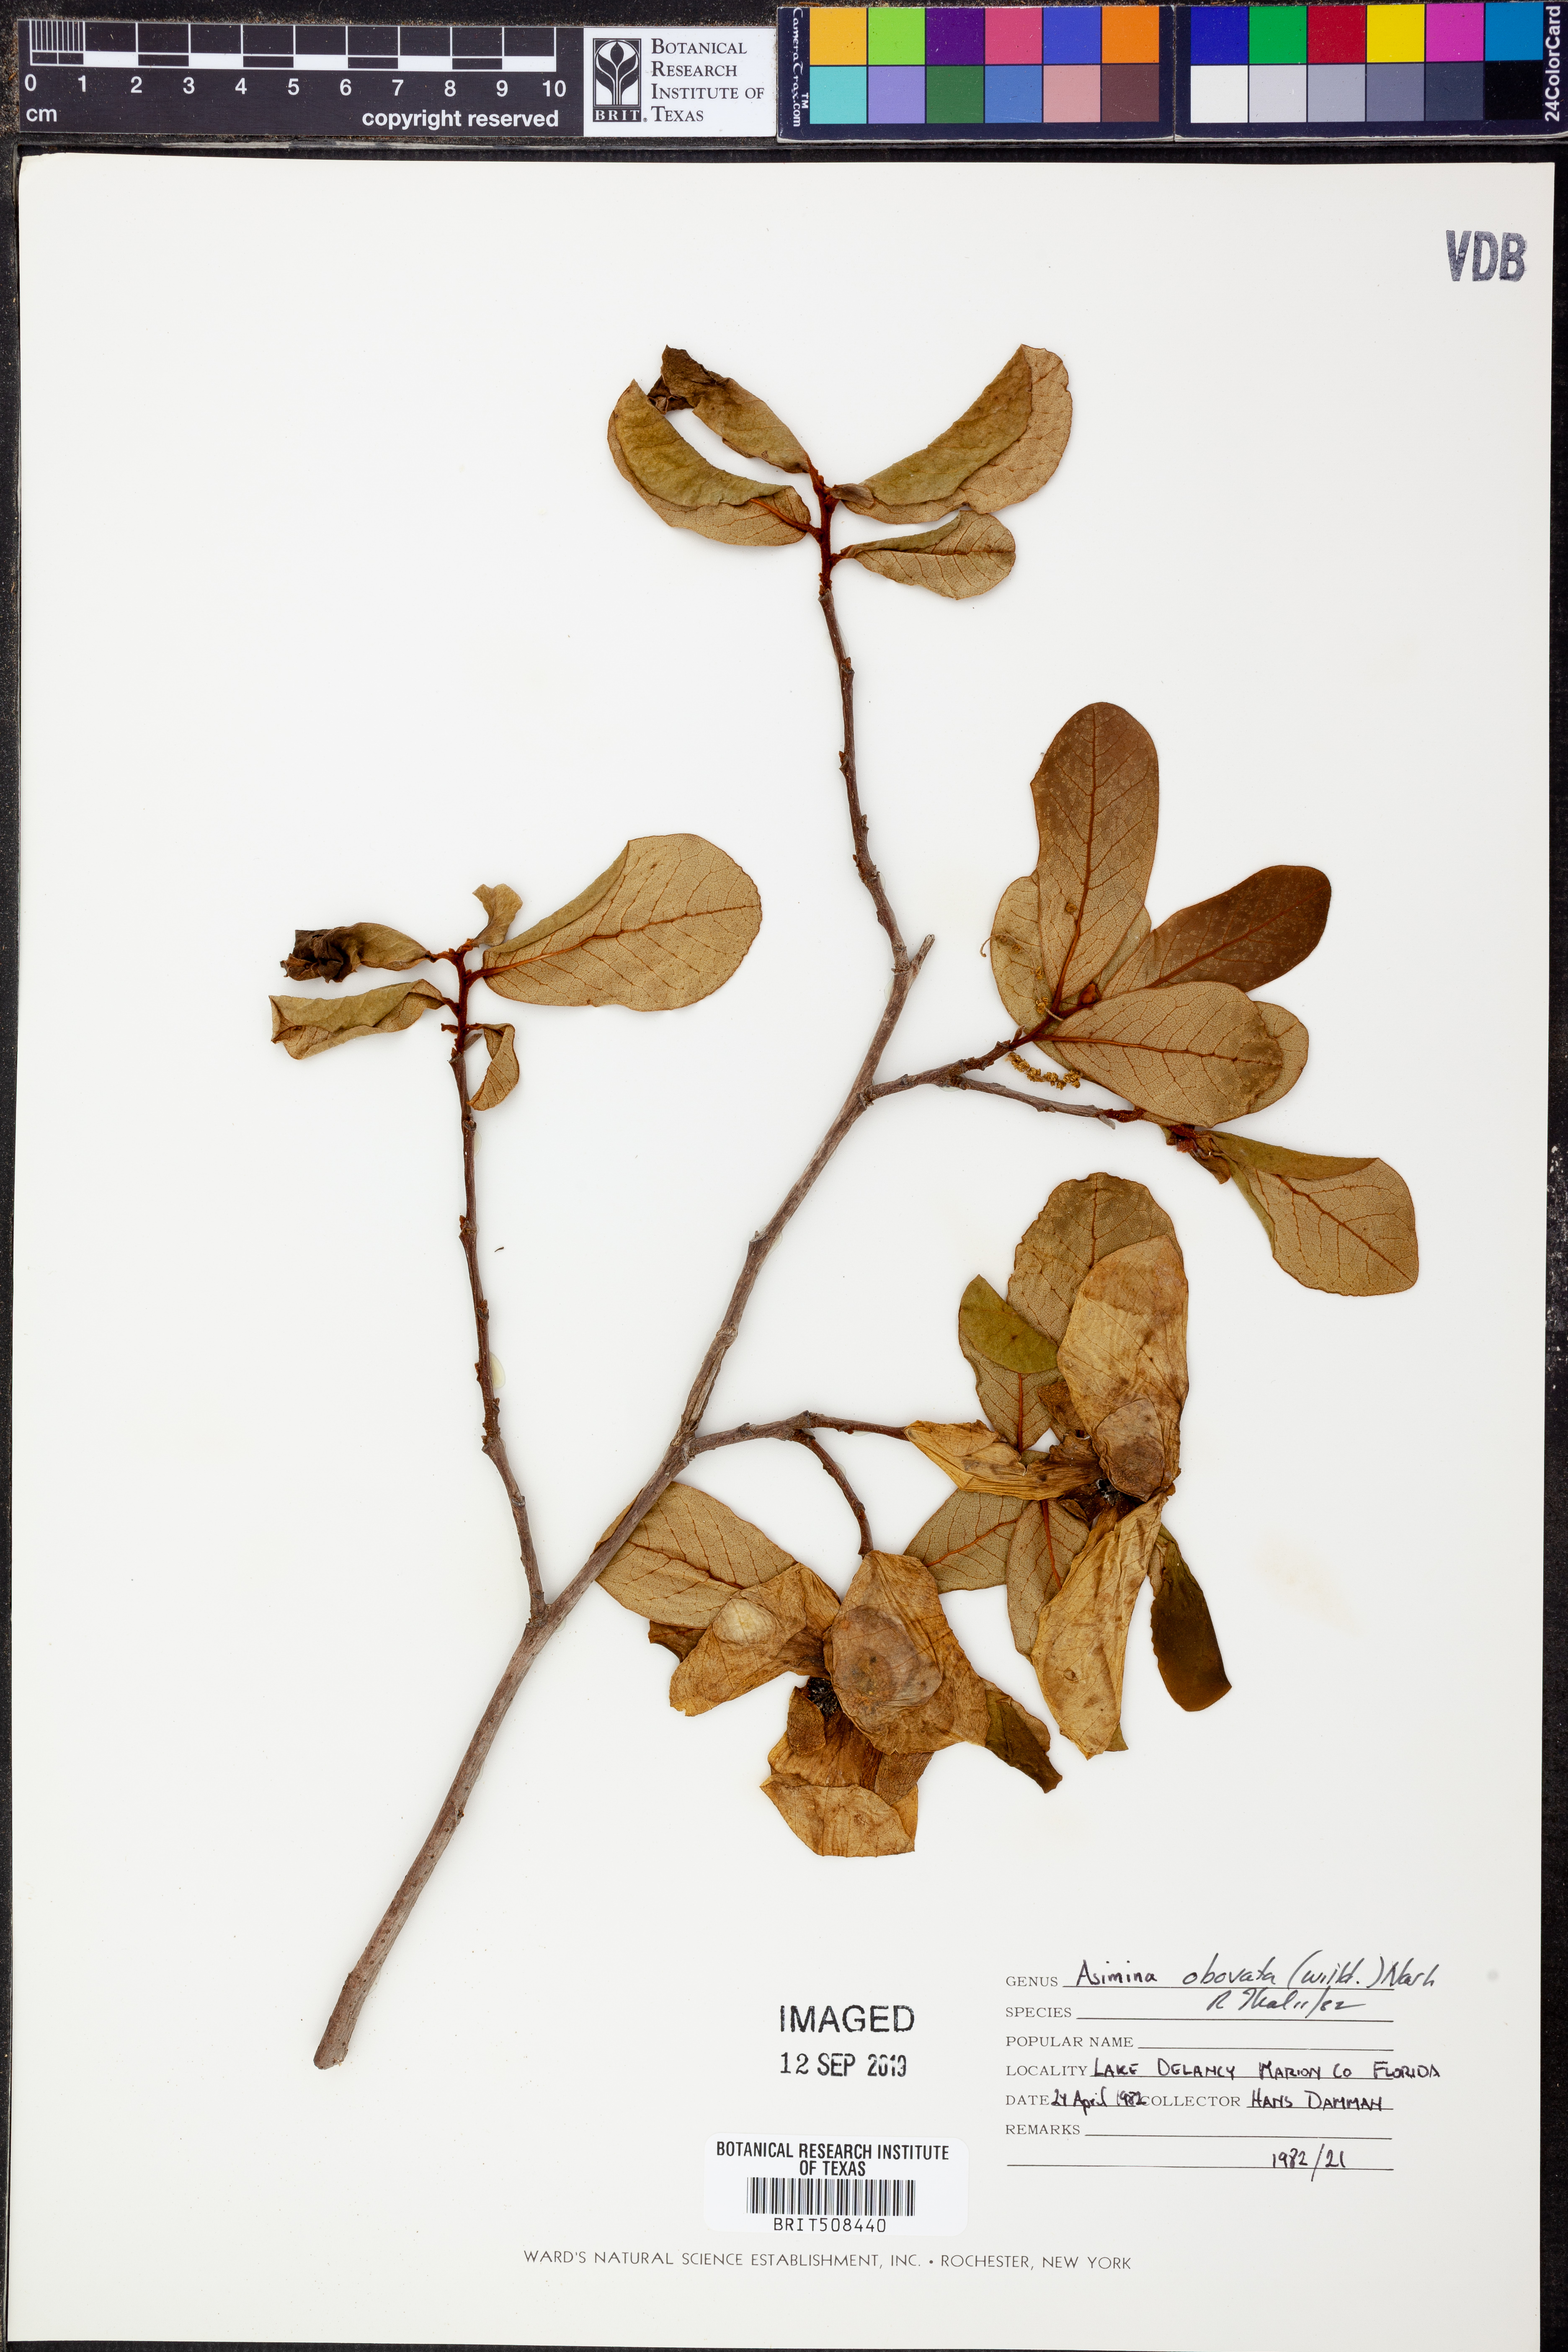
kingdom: Plantae
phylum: Tracheophyta
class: Magnoliopsida
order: Magnoliales
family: Annonaceae
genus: Asimina
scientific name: Asimina obovata
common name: Flag pawpaw
